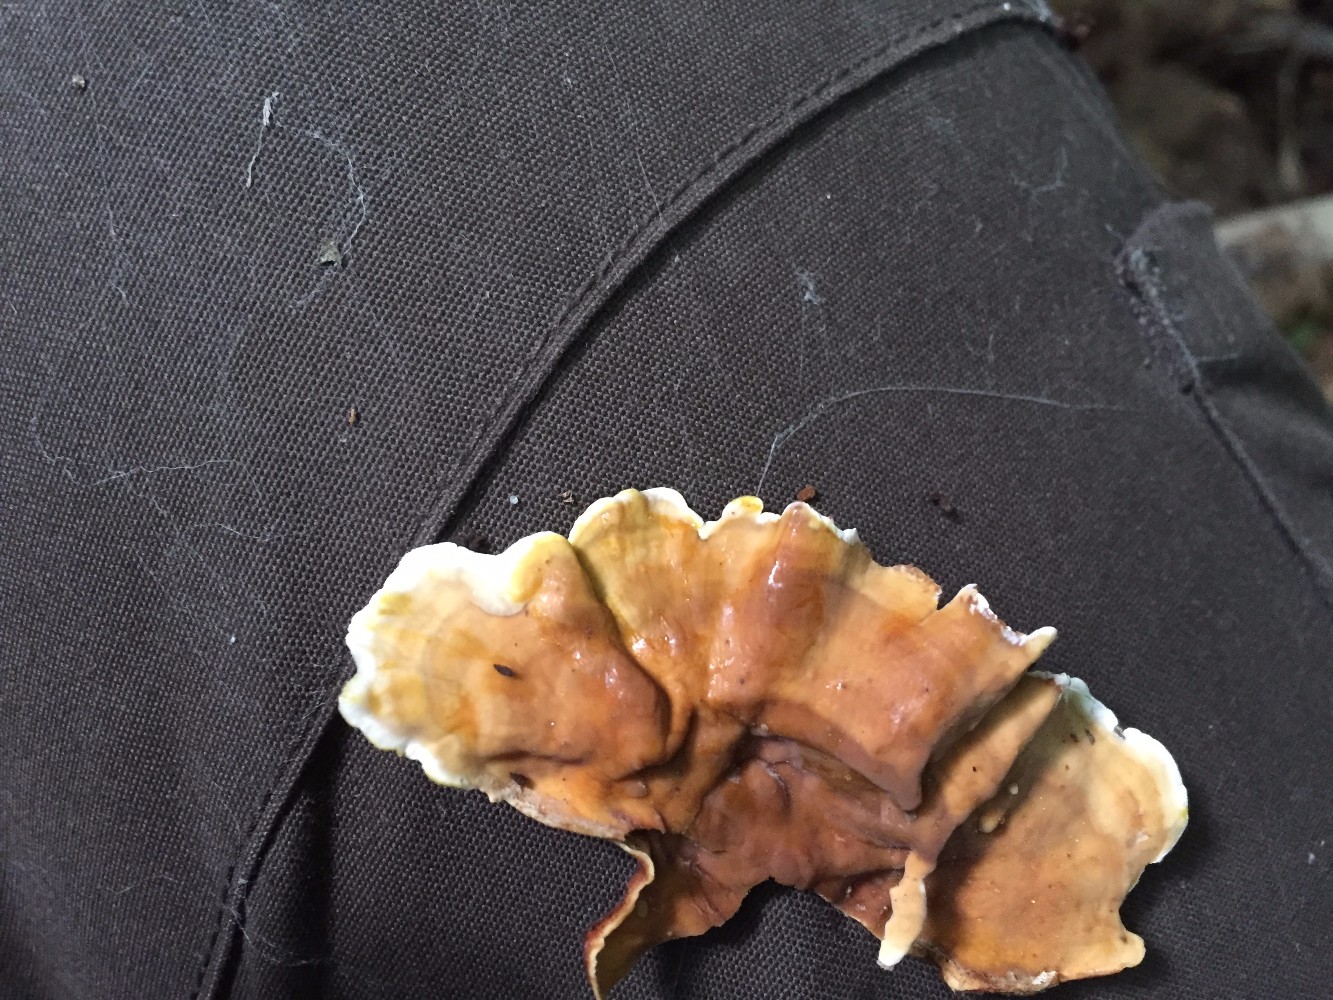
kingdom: Fungi
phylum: Basidiomycota
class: Agaricomycetes
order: Russulales
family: Stereaceae
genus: Stereum
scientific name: Stereum subtomentosum
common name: smuk lædersvamp
